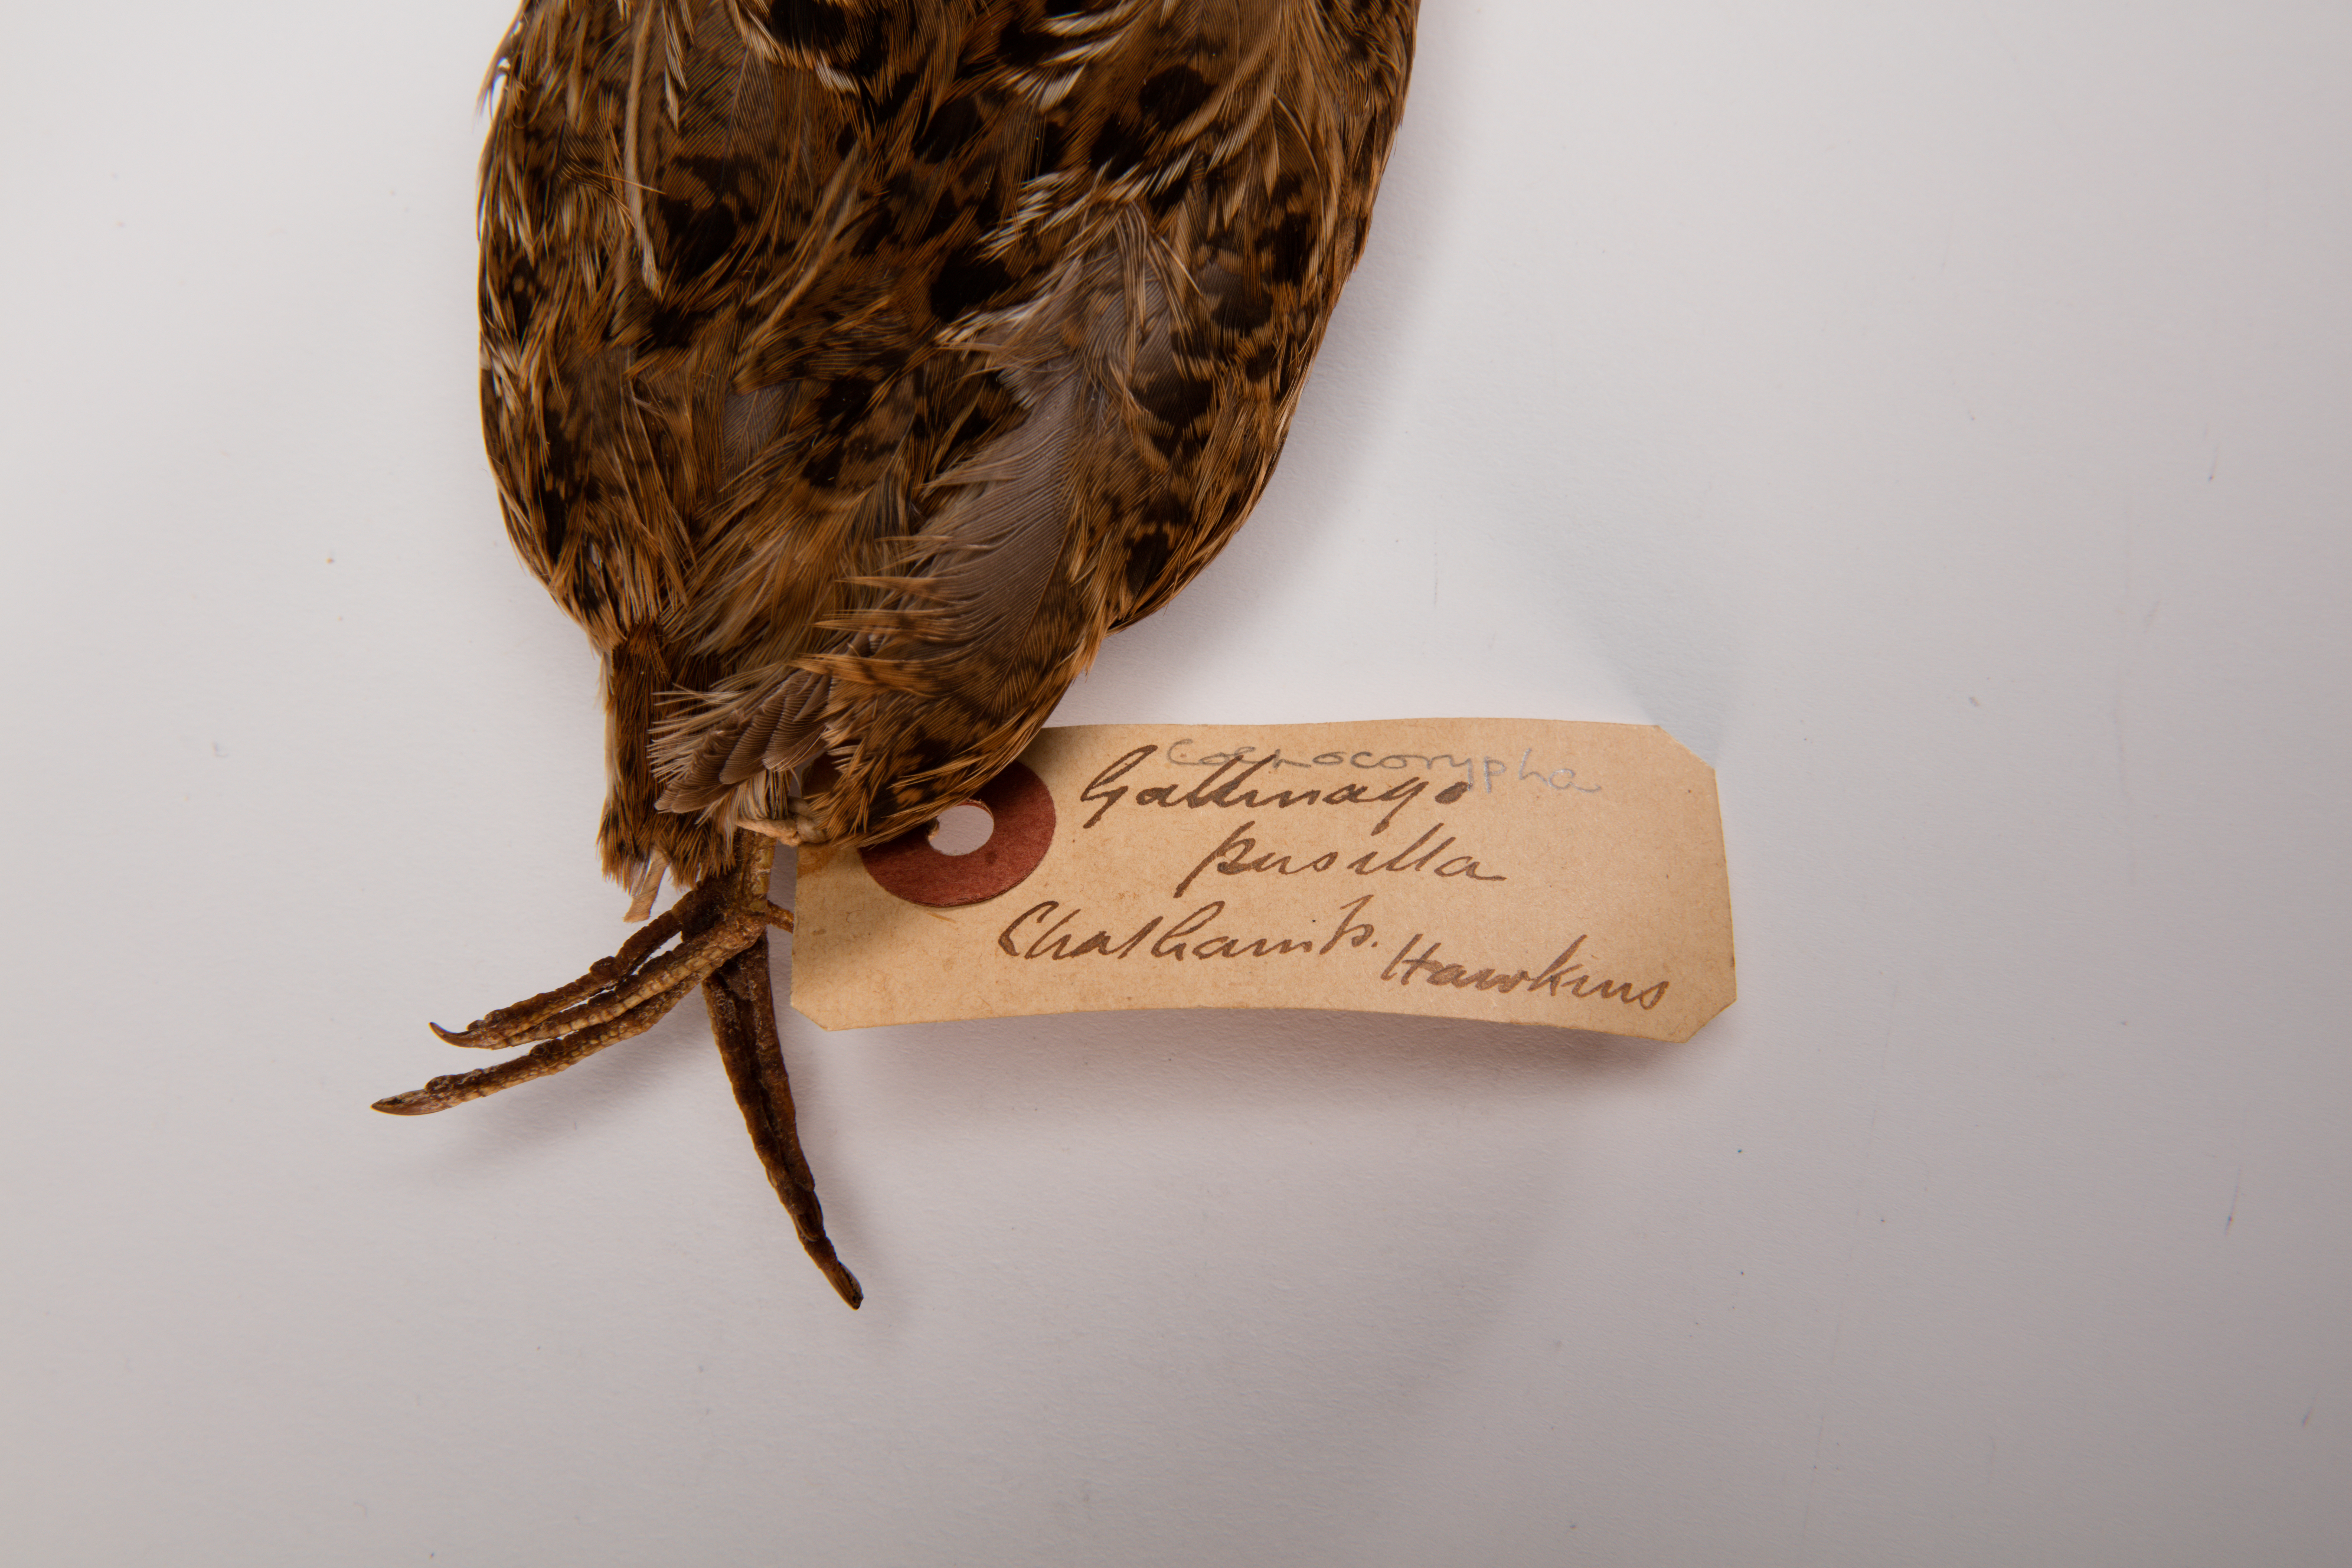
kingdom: Animalia
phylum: Chordata
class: Aves
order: Charadriiformes
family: Scolopacidae
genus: Coenocorypha
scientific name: Coenocorypha pusilla
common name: Chatham snipe
